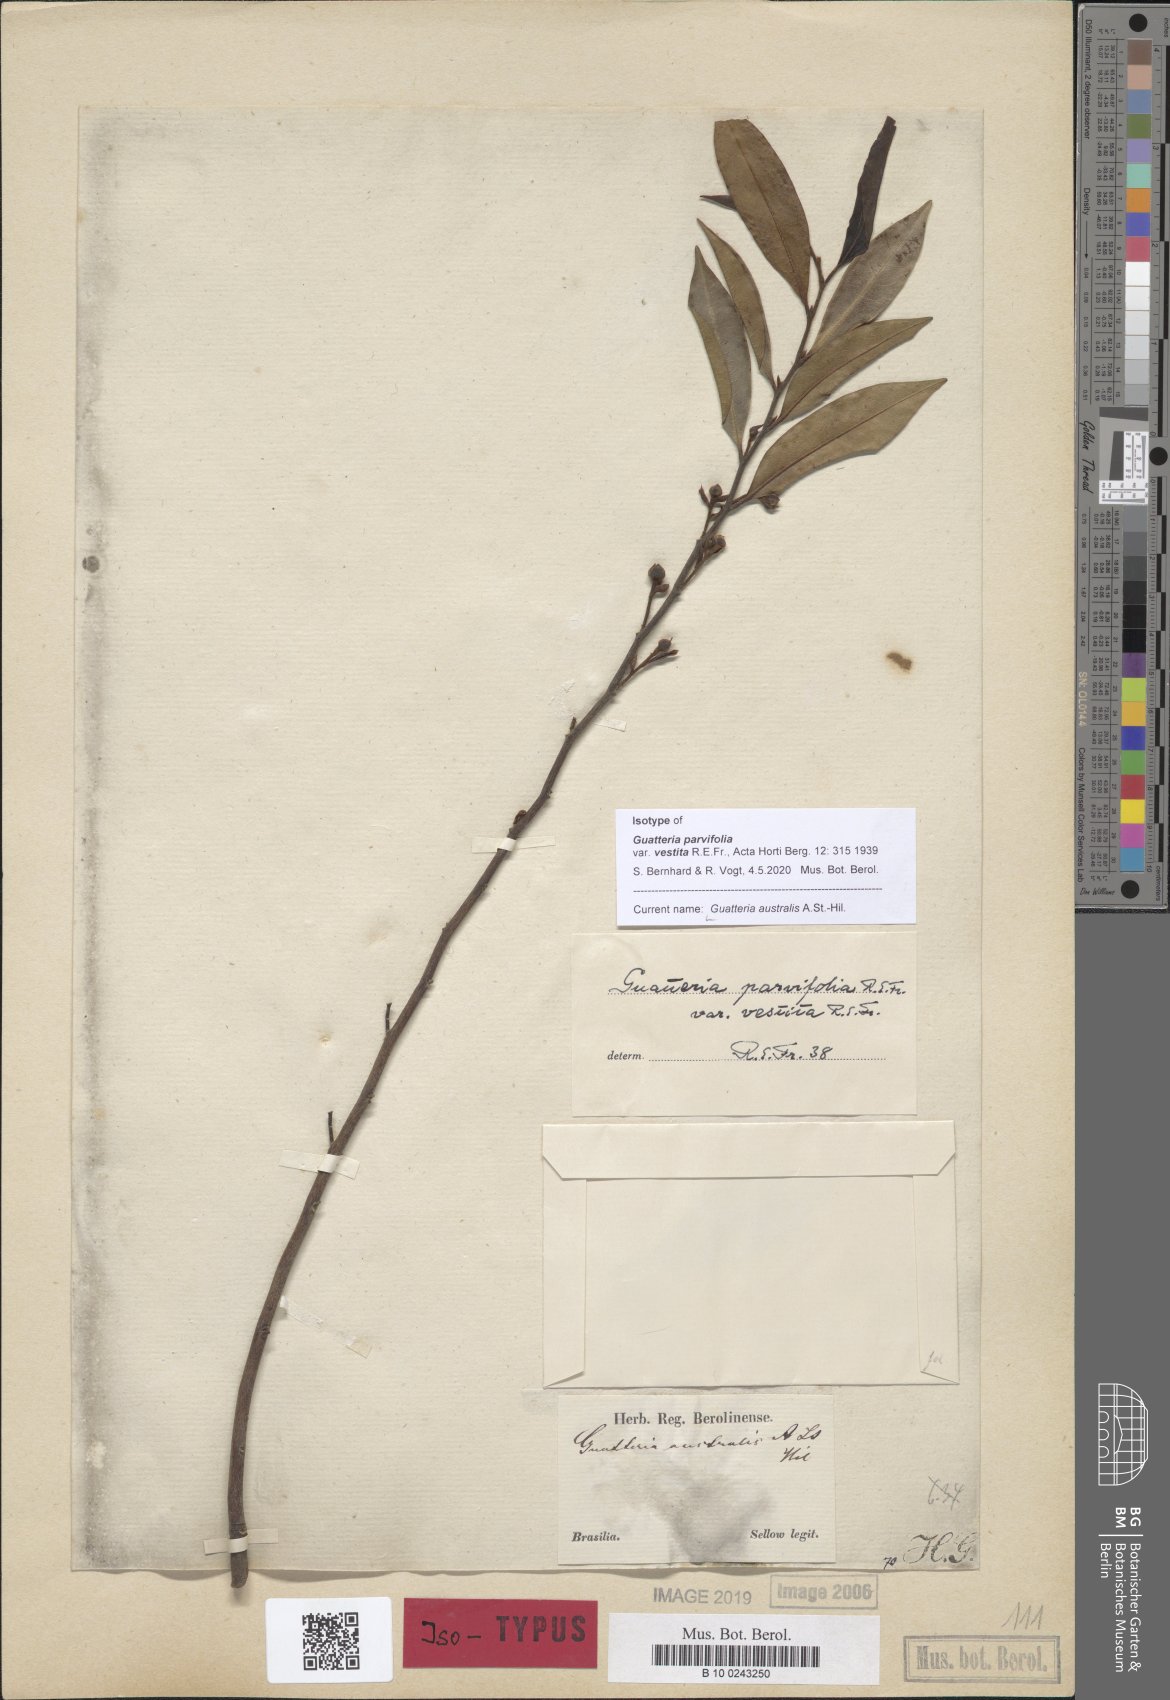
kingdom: Plantae
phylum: Tracheophyta
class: Magnoliopsida
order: Magnoliales
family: Annonaceae
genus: Guatteria
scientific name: Guatteria australis
